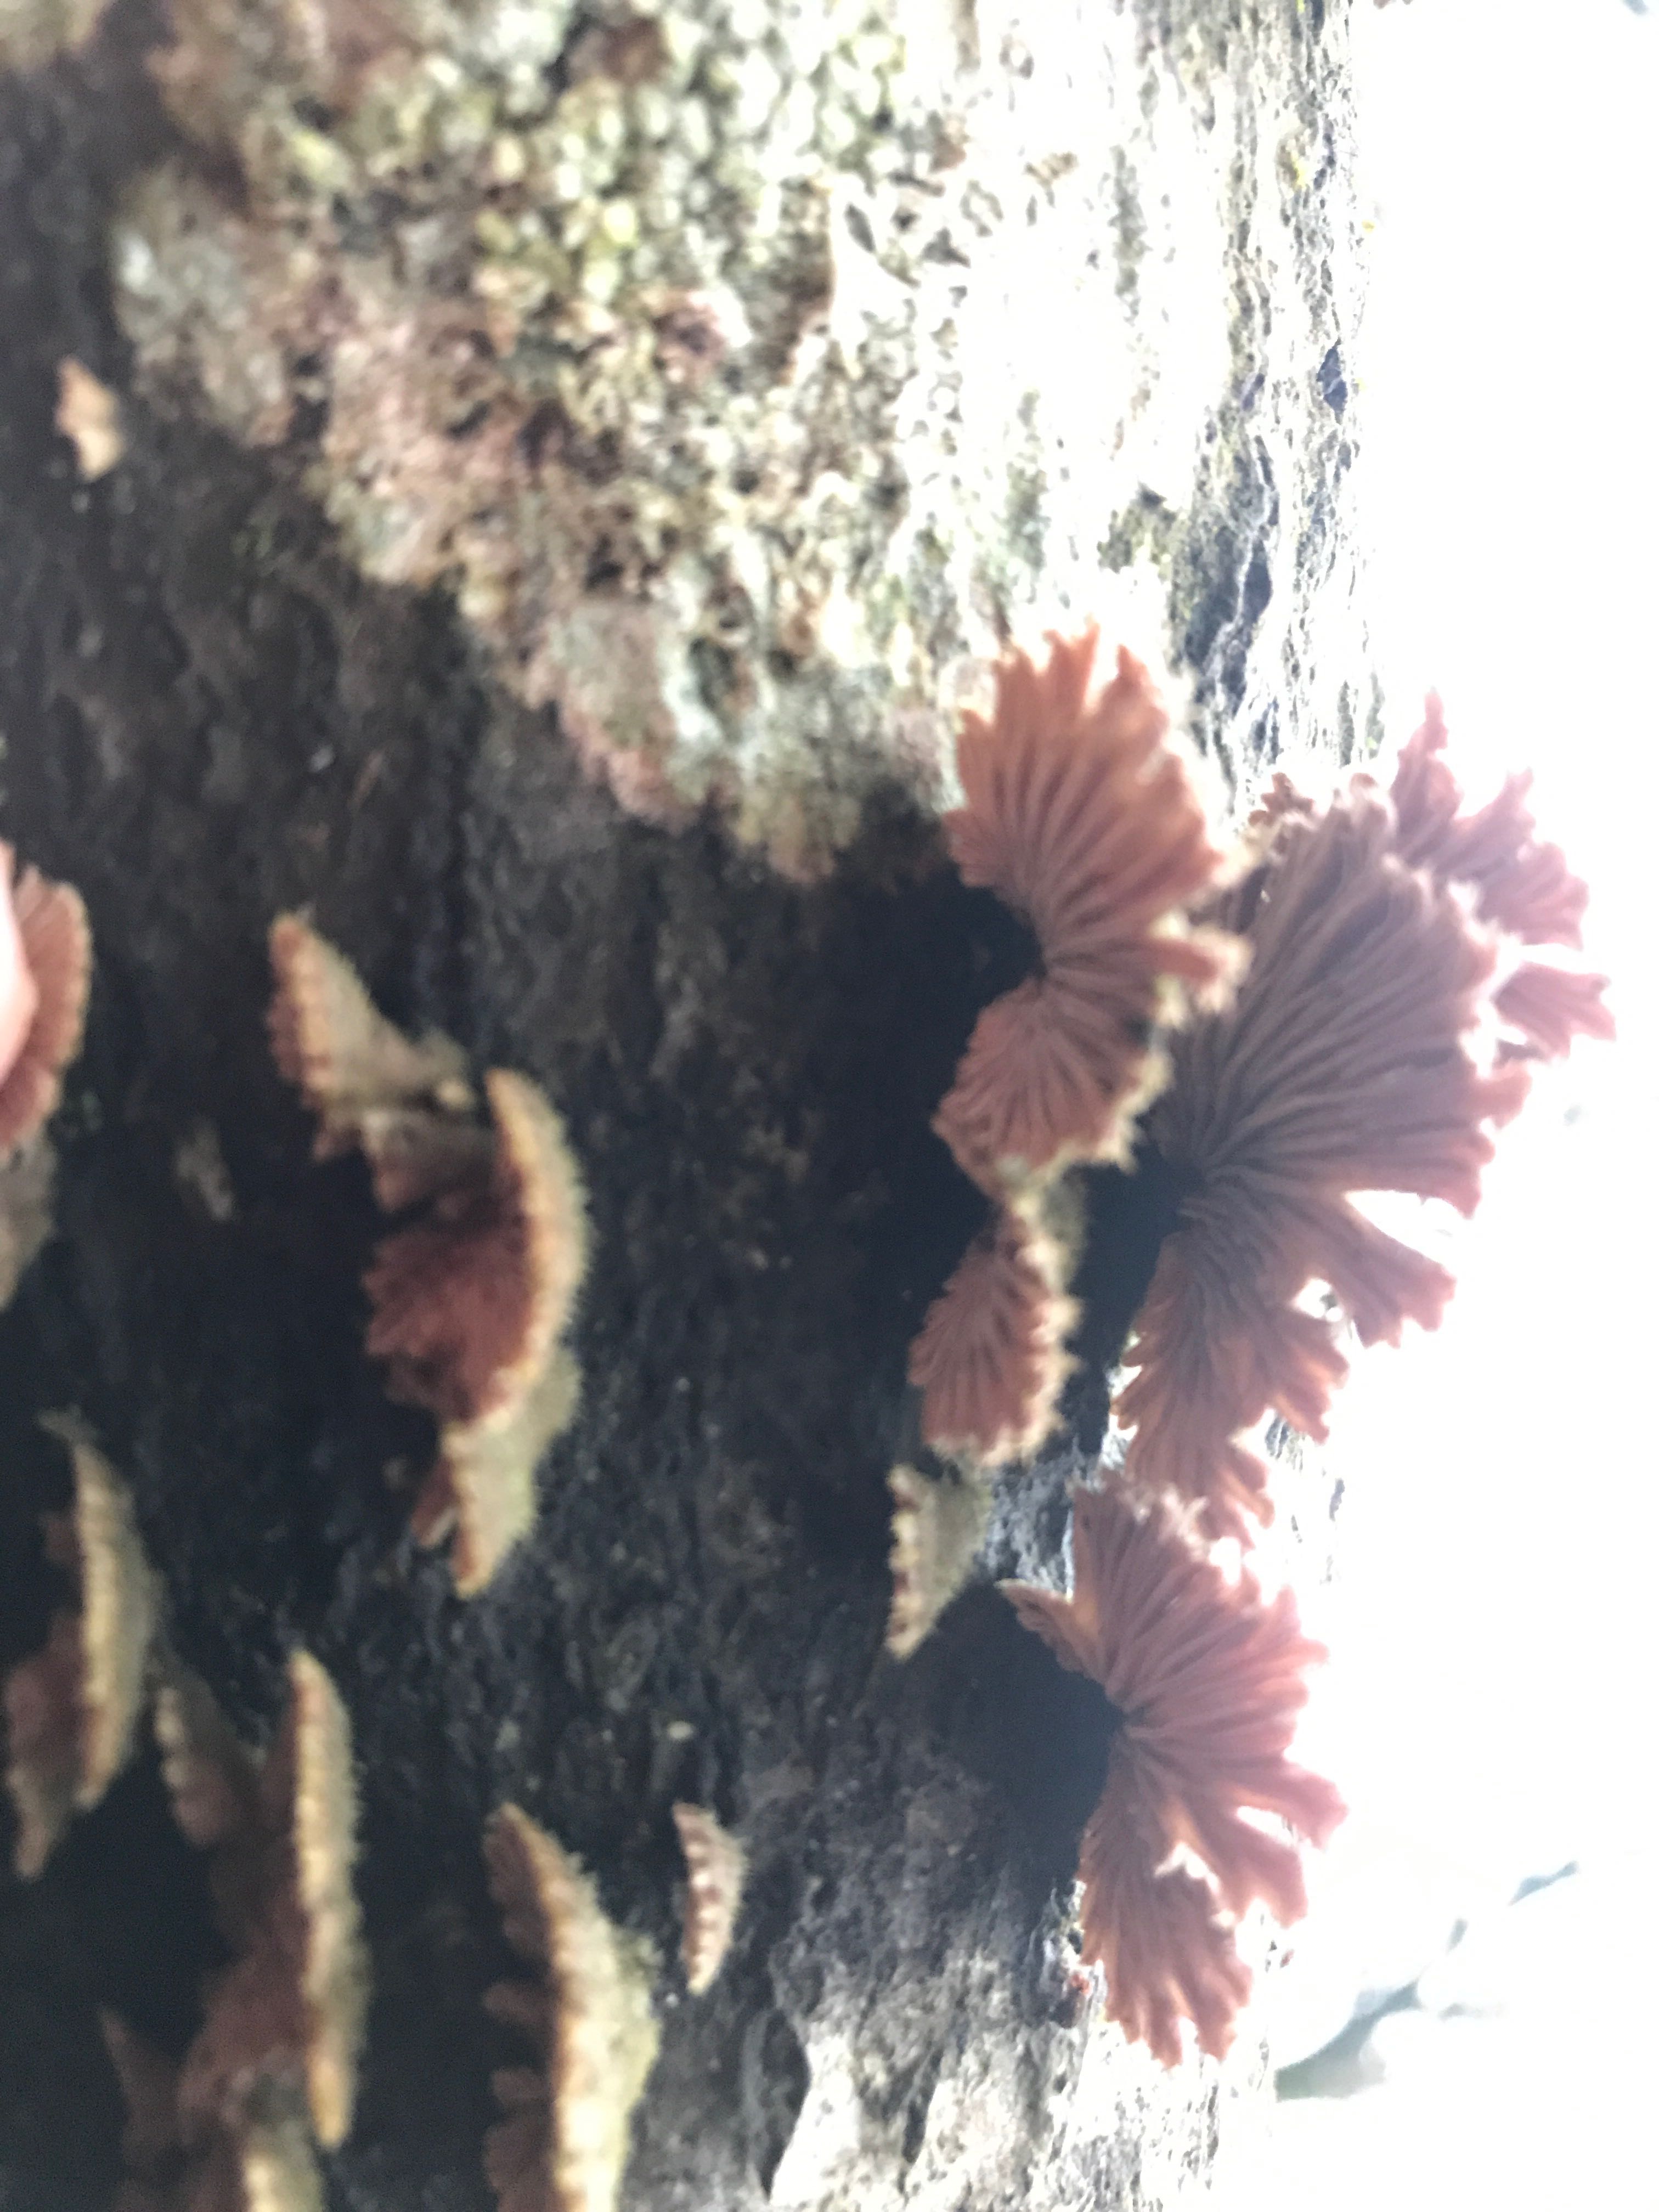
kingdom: Fungi
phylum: Basidiomycota
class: Agaricomycetes
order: Agaricales
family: Schizophyllaceae
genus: Schizophyllum
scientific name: Schizophyllum commune
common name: kløvblad
